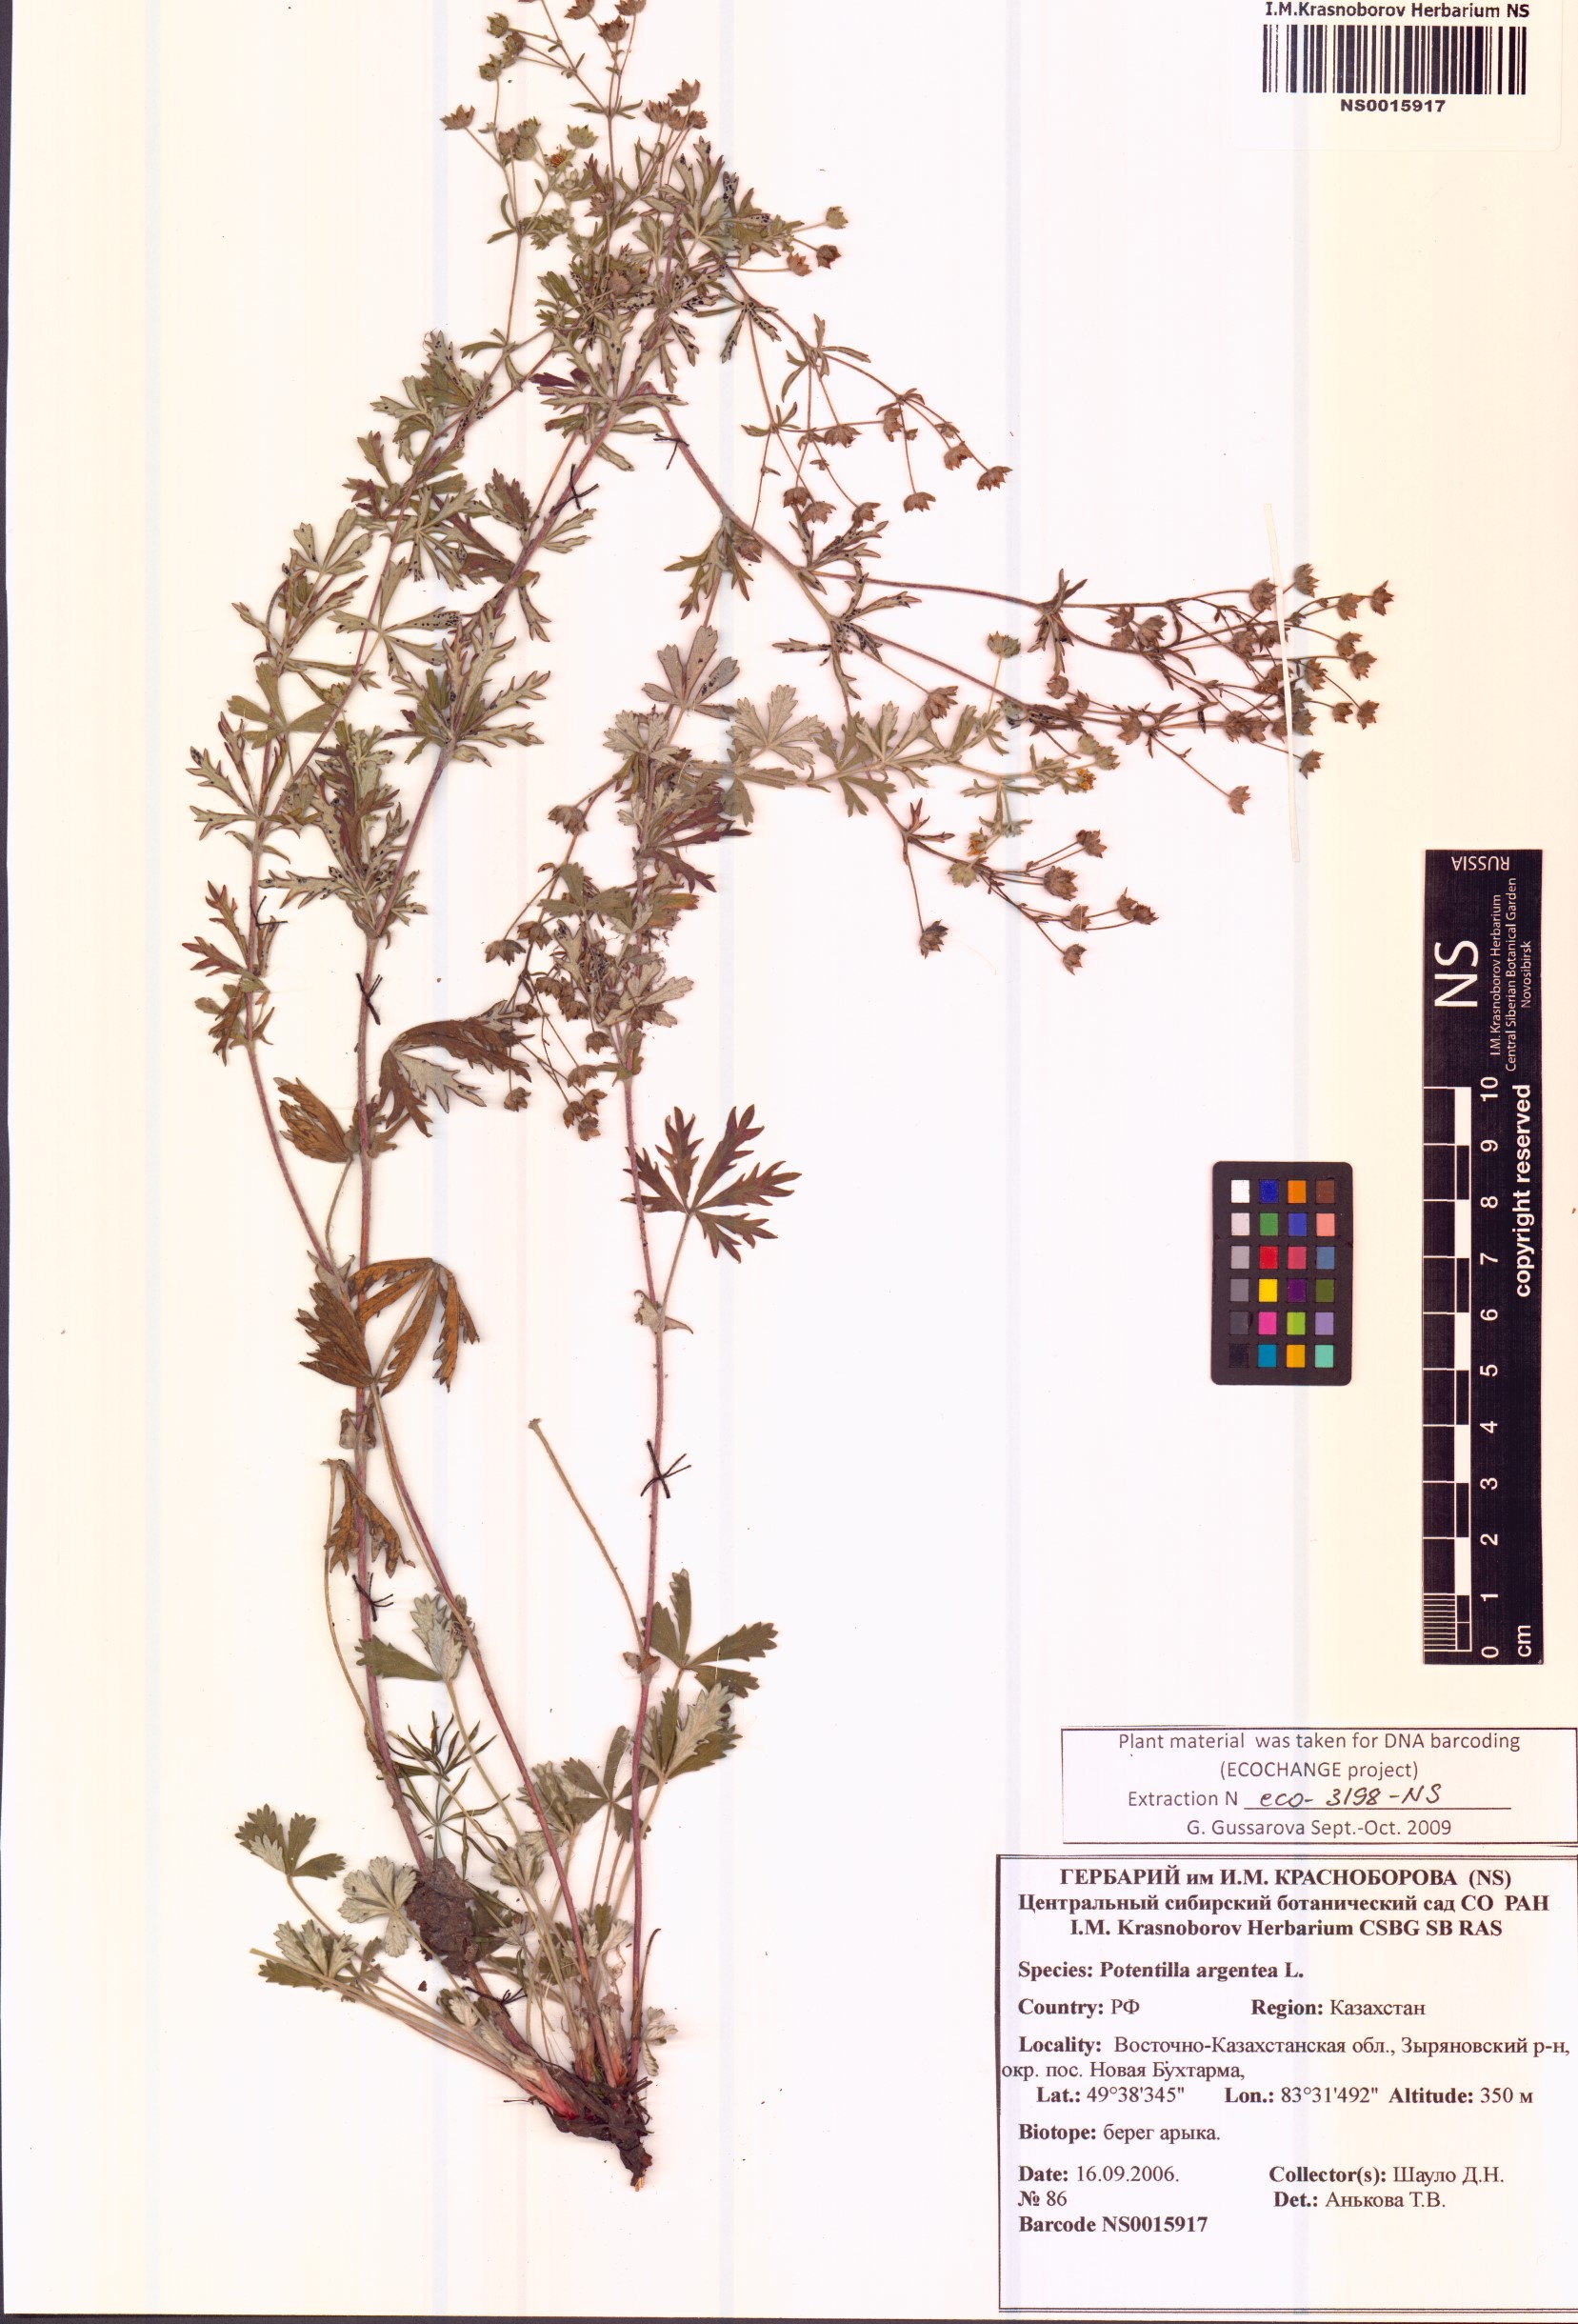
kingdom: Plantae
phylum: Tracheophyta
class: Magnoliopsida
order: Rosales
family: Rosaceae
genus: Potentilla
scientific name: Potentilla argentea
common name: Hoary cinquefoil
